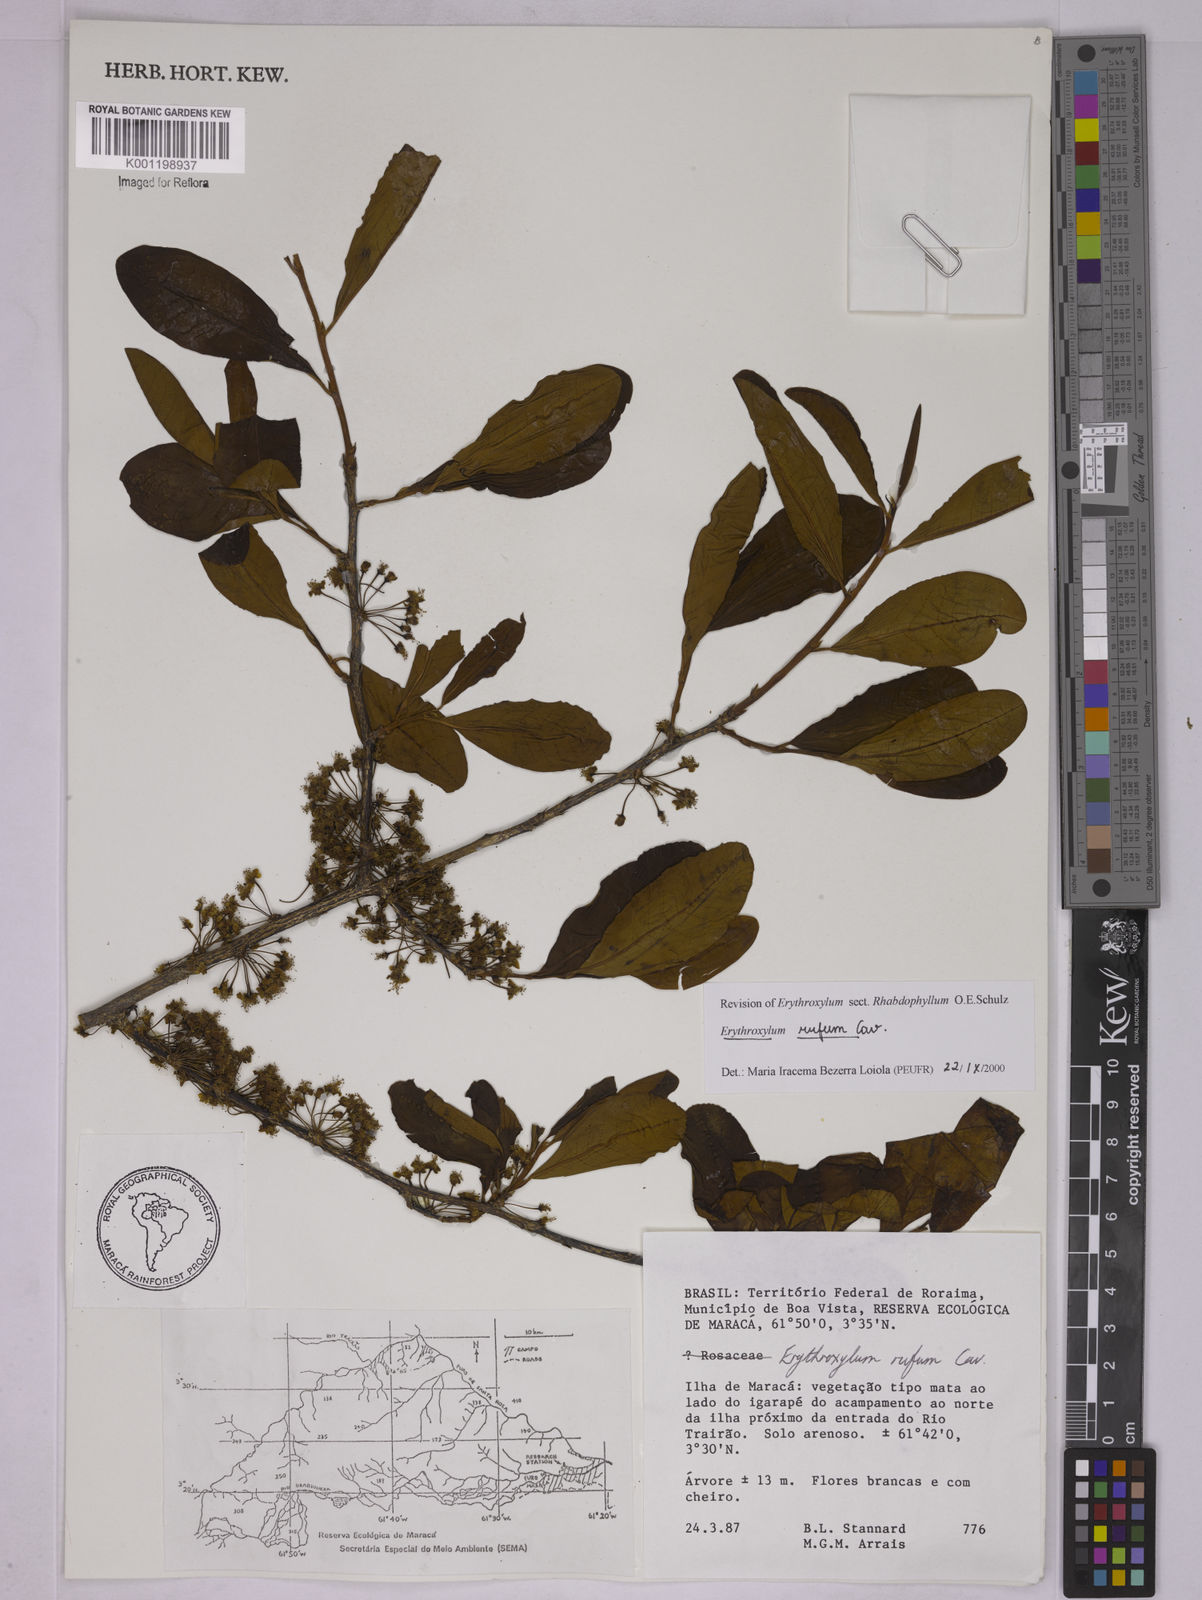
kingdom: Plantae
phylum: Tracheophyta
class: Magnoliopsida
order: Malpighiales
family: Erythroxylaceae
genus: Erythroxylum
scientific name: Erythroxylum rufum
